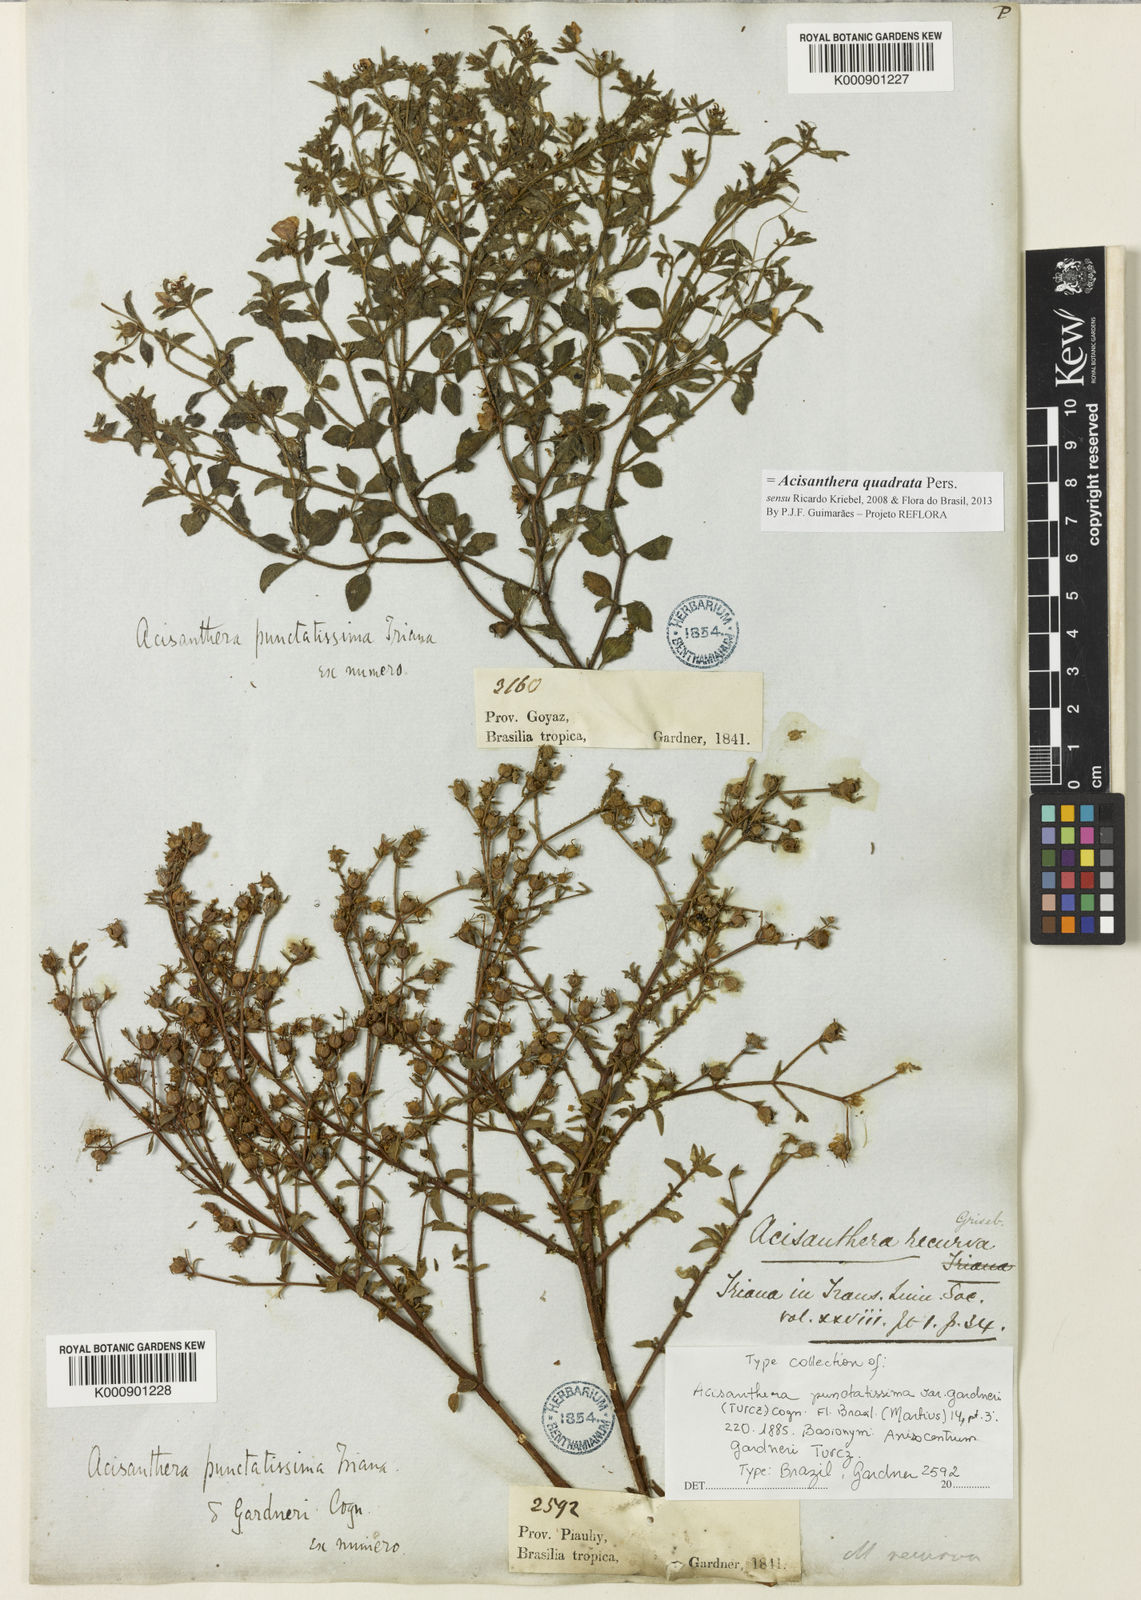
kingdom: Plantae
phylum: Tracheophyta
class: Magnoliopsida
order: Myrtales
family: Melastomataceae
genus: Acisanthera
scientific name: Acisanthera quadrata
